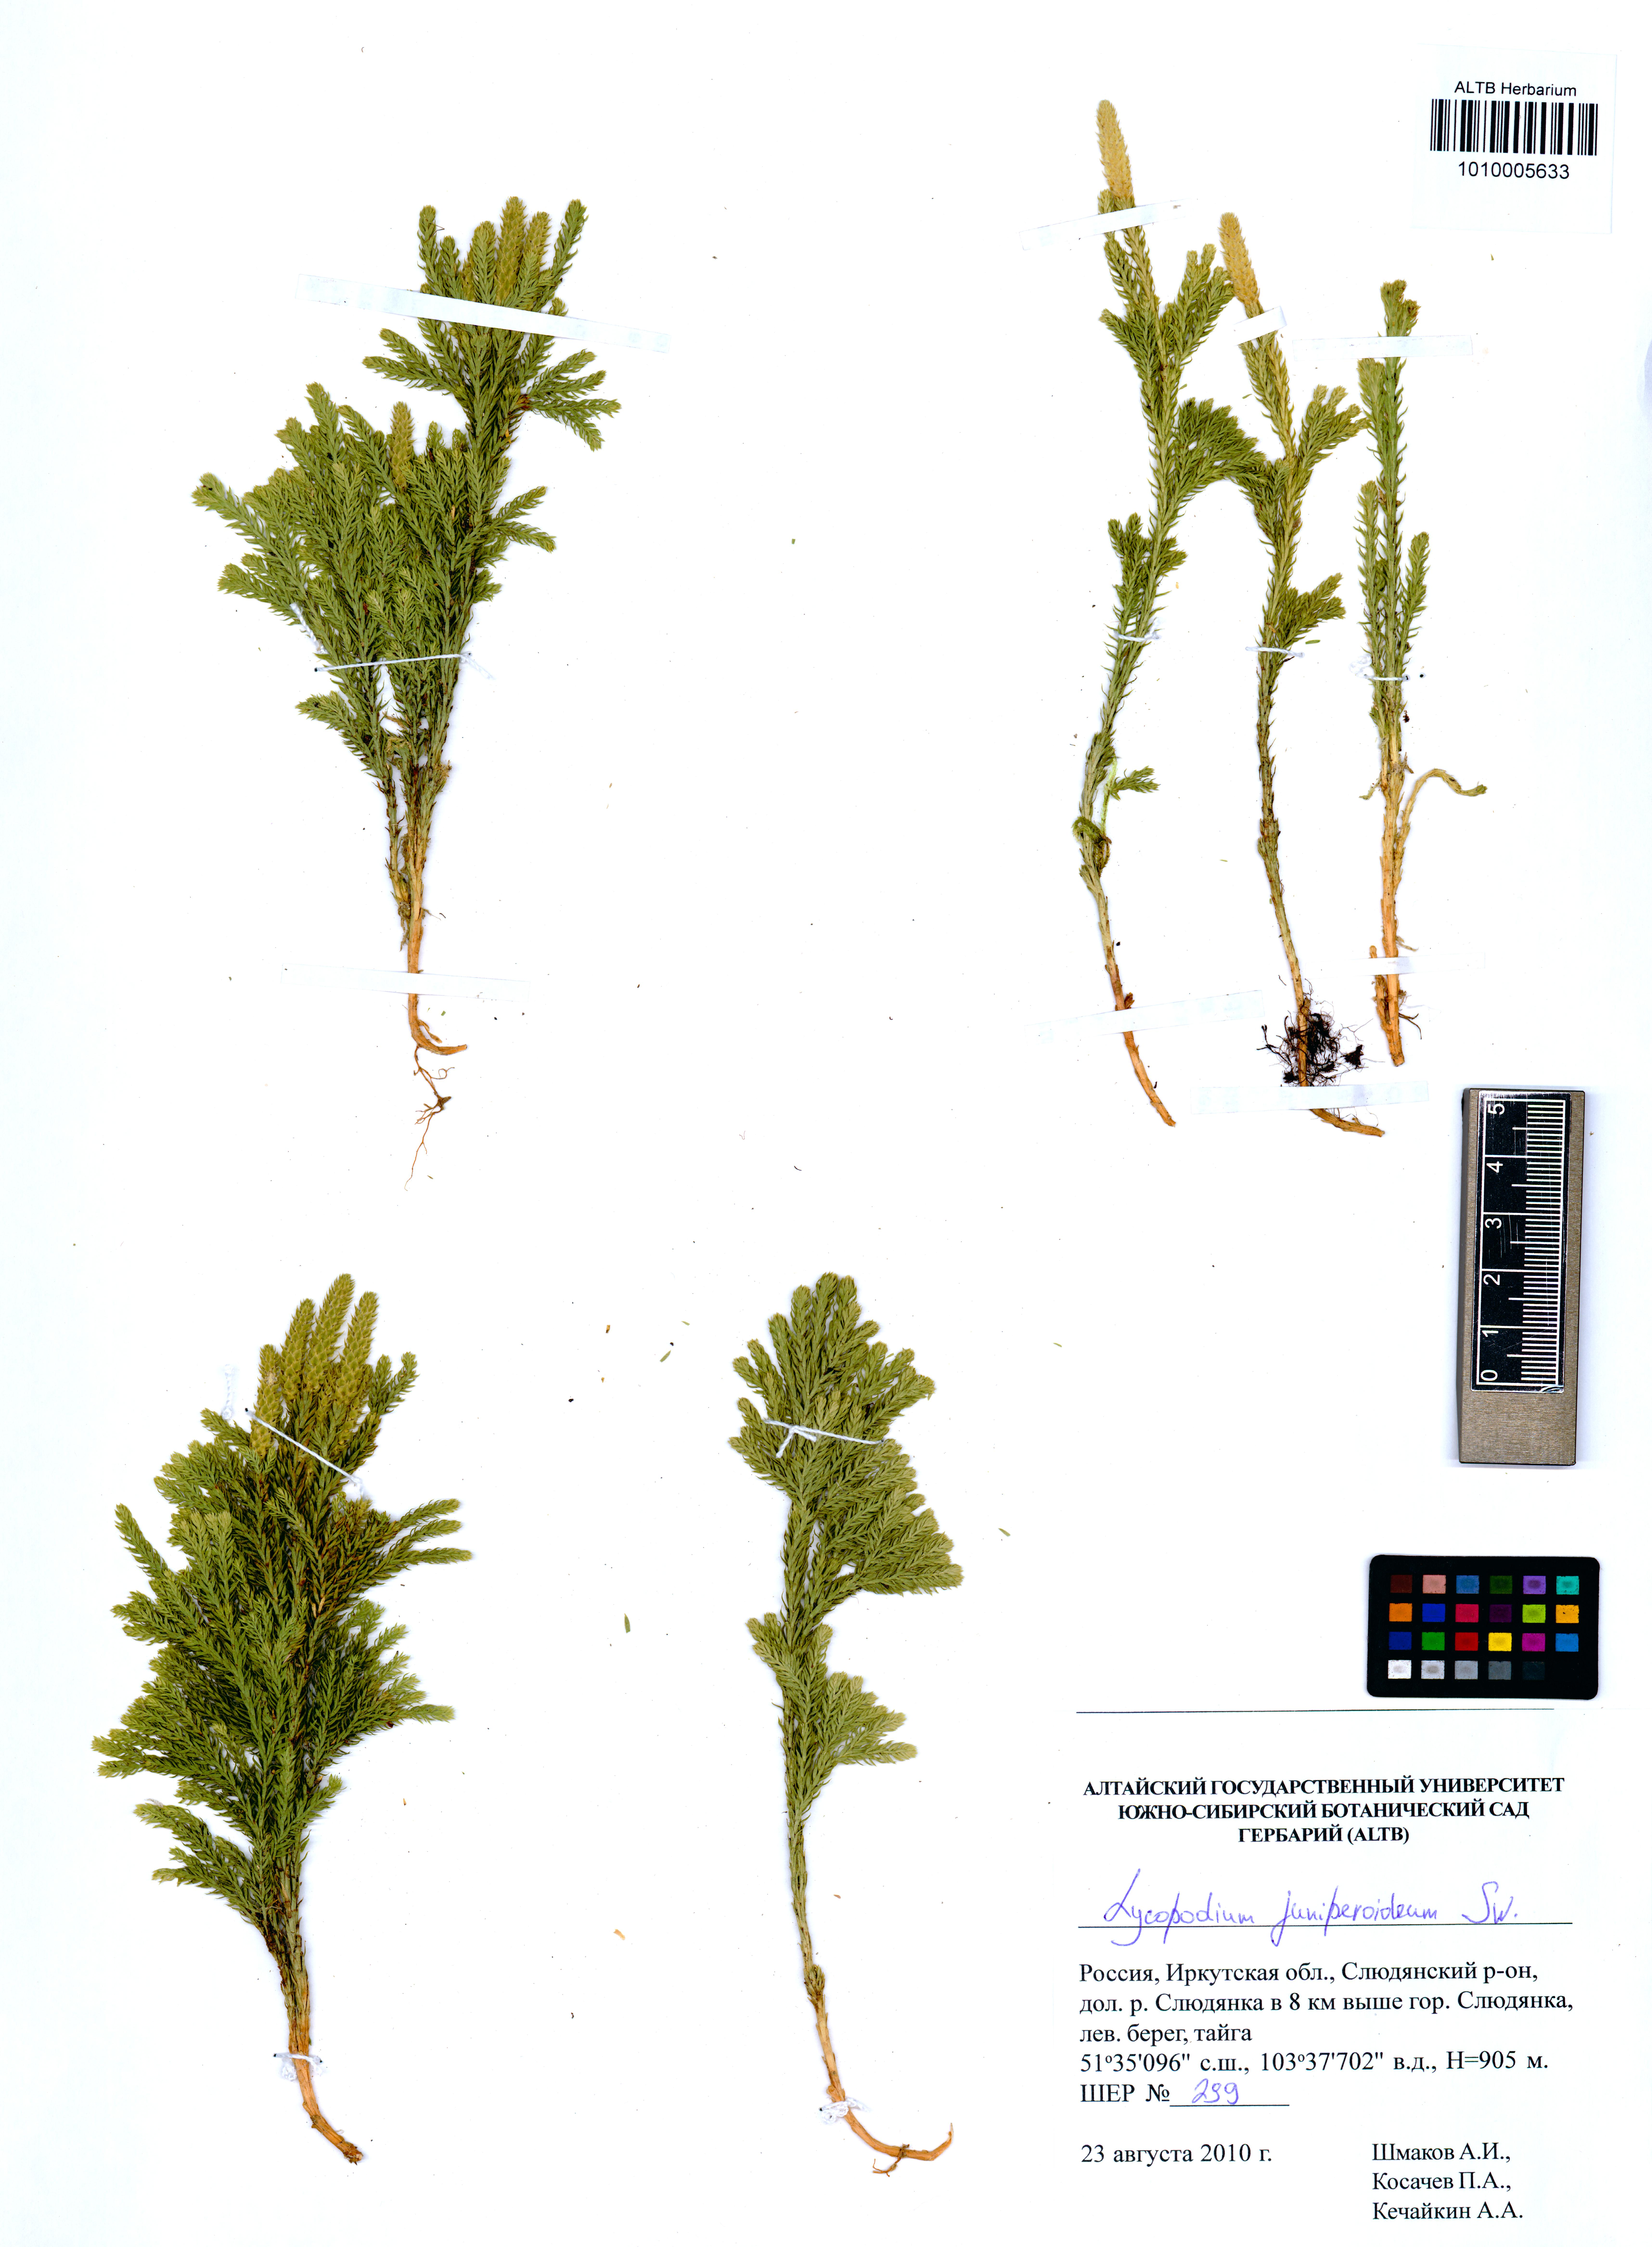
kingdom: Plantae
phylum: Tracheophyta
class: Lycopodiopsida
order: Lycopodiales
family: Lycopodiaceae
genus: Dendrolycopodium
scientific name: Dendrolycopodium juniperoideum
